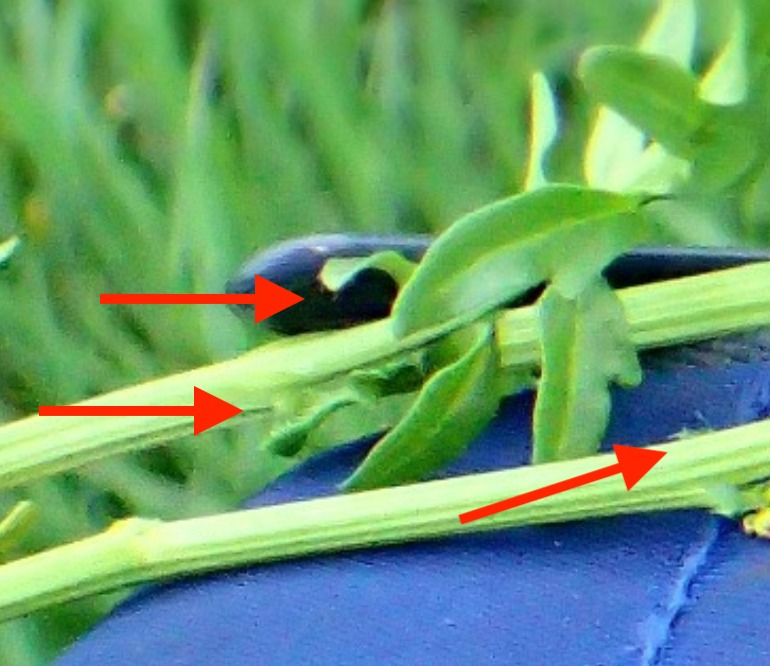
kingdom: Plantae
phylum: Tracheophyta
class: Magnoliopsida
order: Brassicales
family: Brassicaceae
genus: Barbarea
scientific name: Barbarea intermedia
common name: Randhåret vinterkarse
